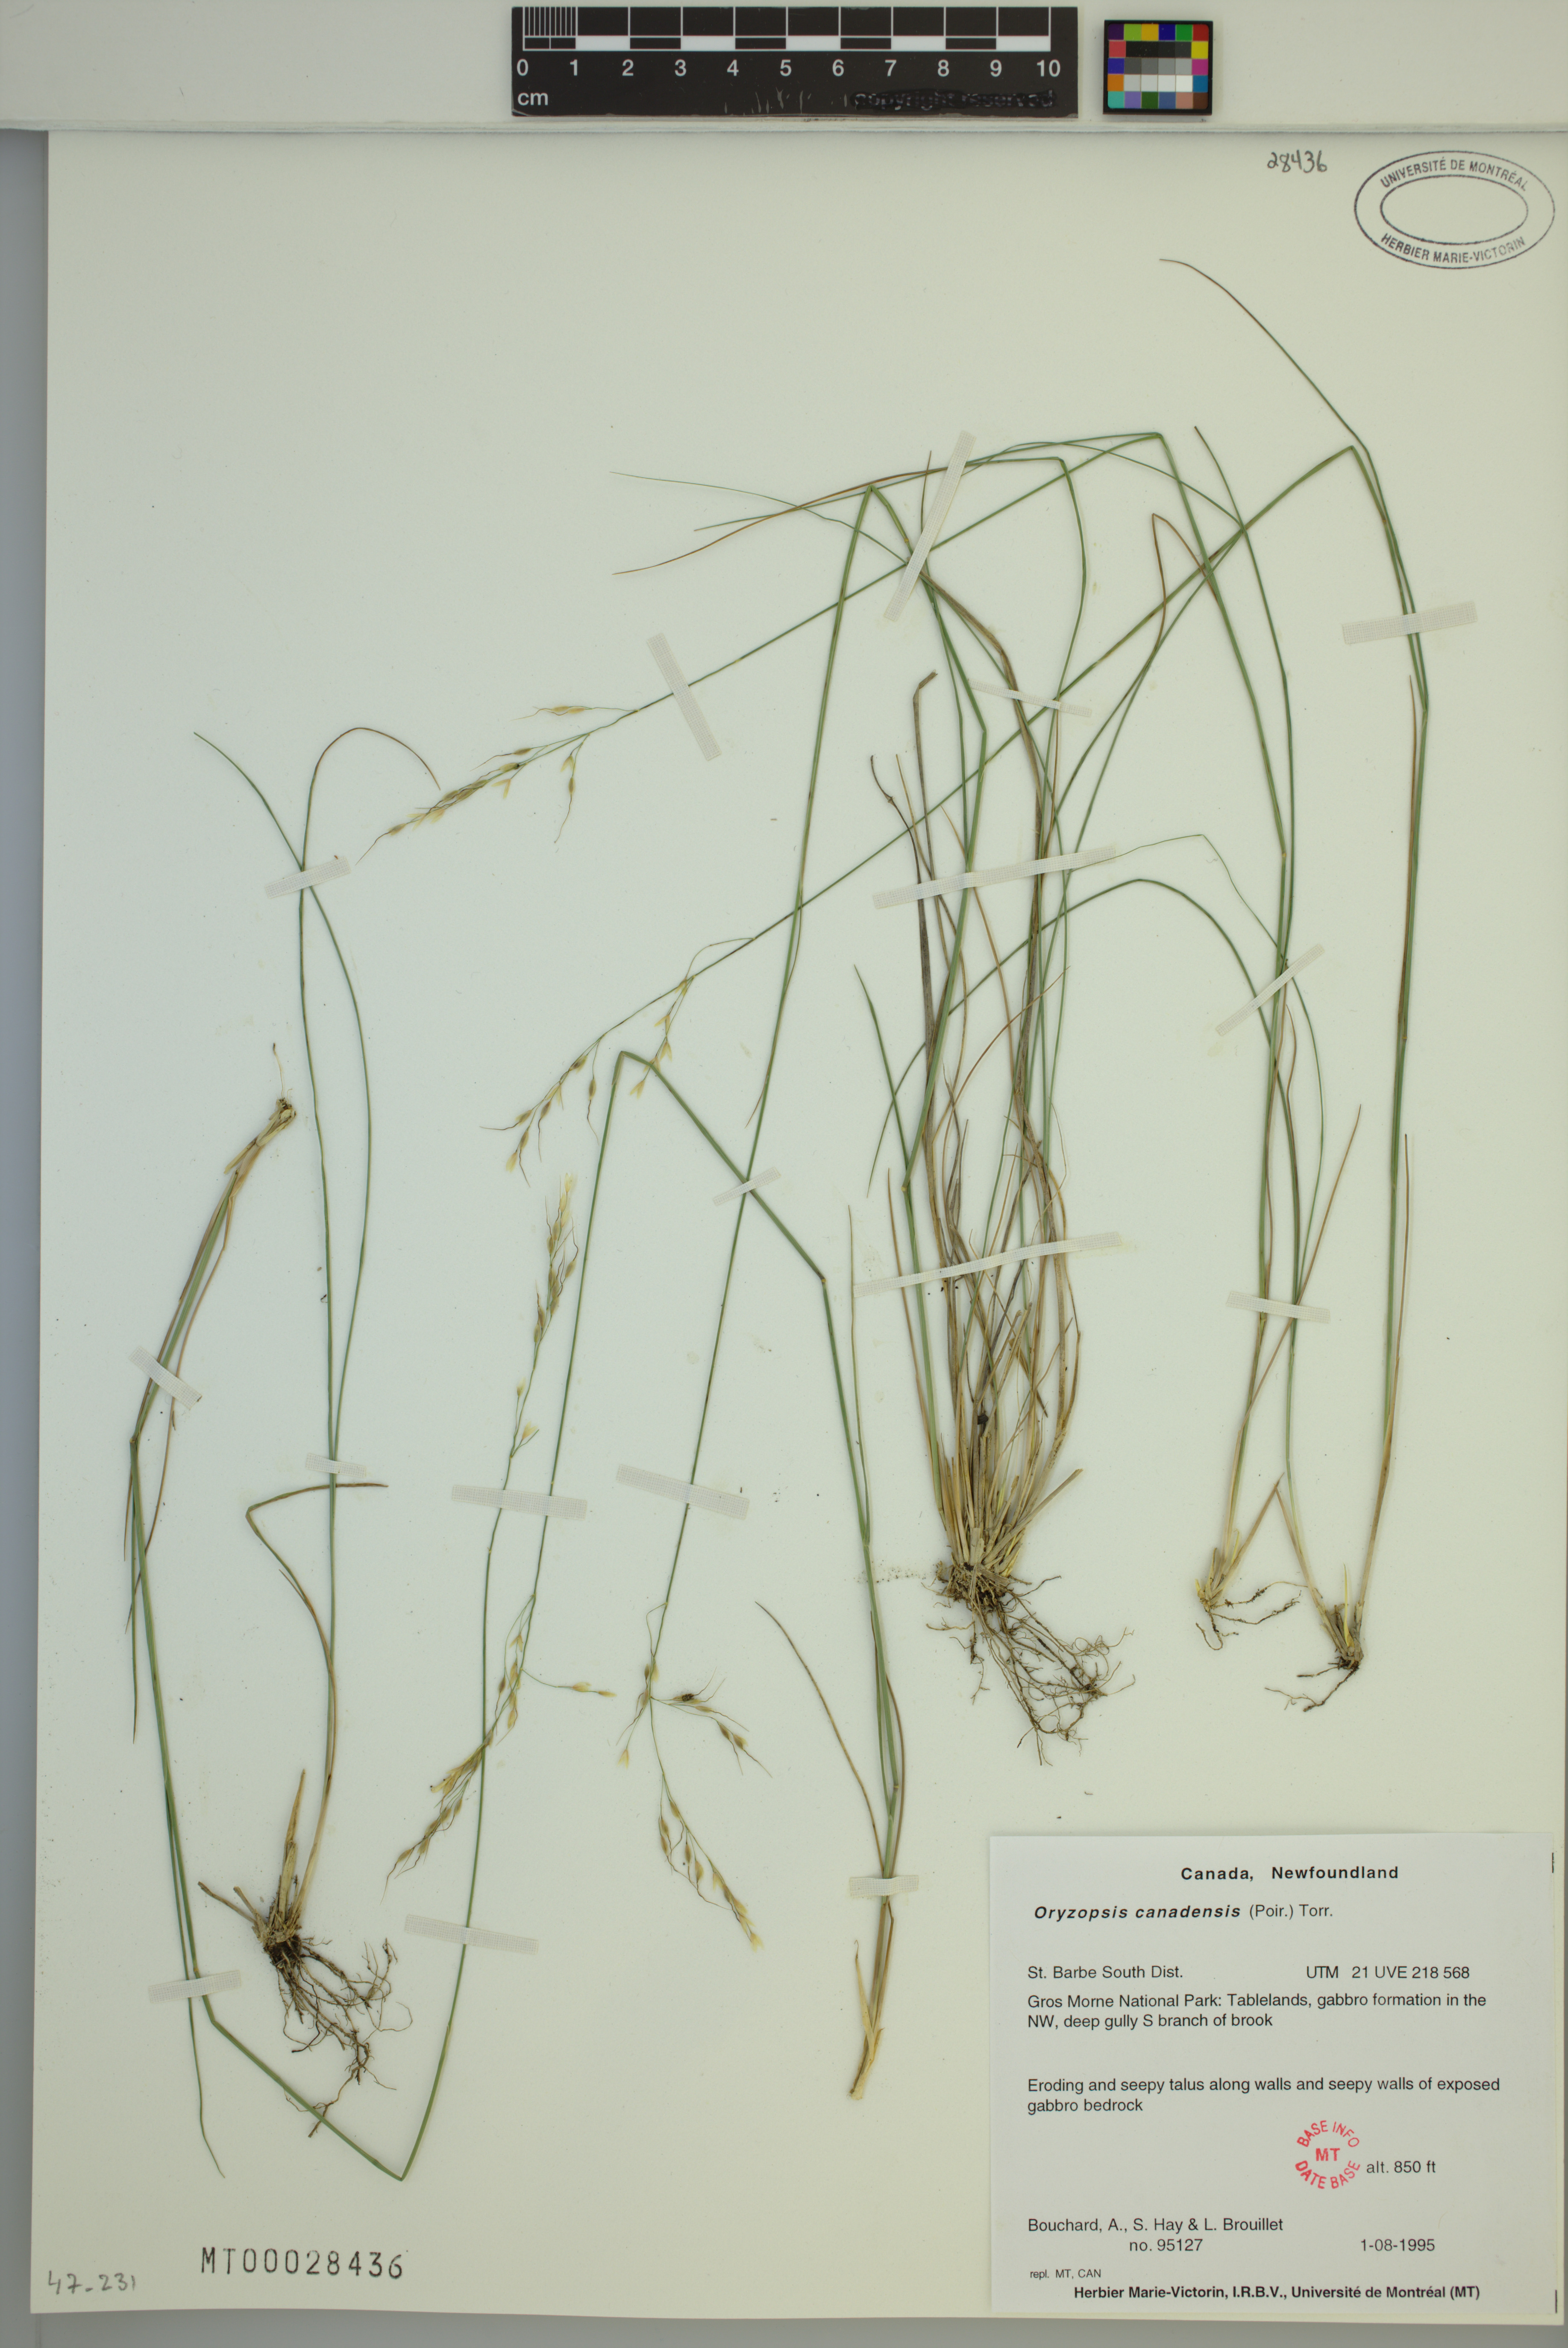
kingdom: Plantae
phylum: Tracheophyta
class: Liliopsida
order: Poales
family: Poaceae
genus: Piptatheropsis
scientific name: Piptatheropsis canadensis
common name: Canada mountain ricegrass
